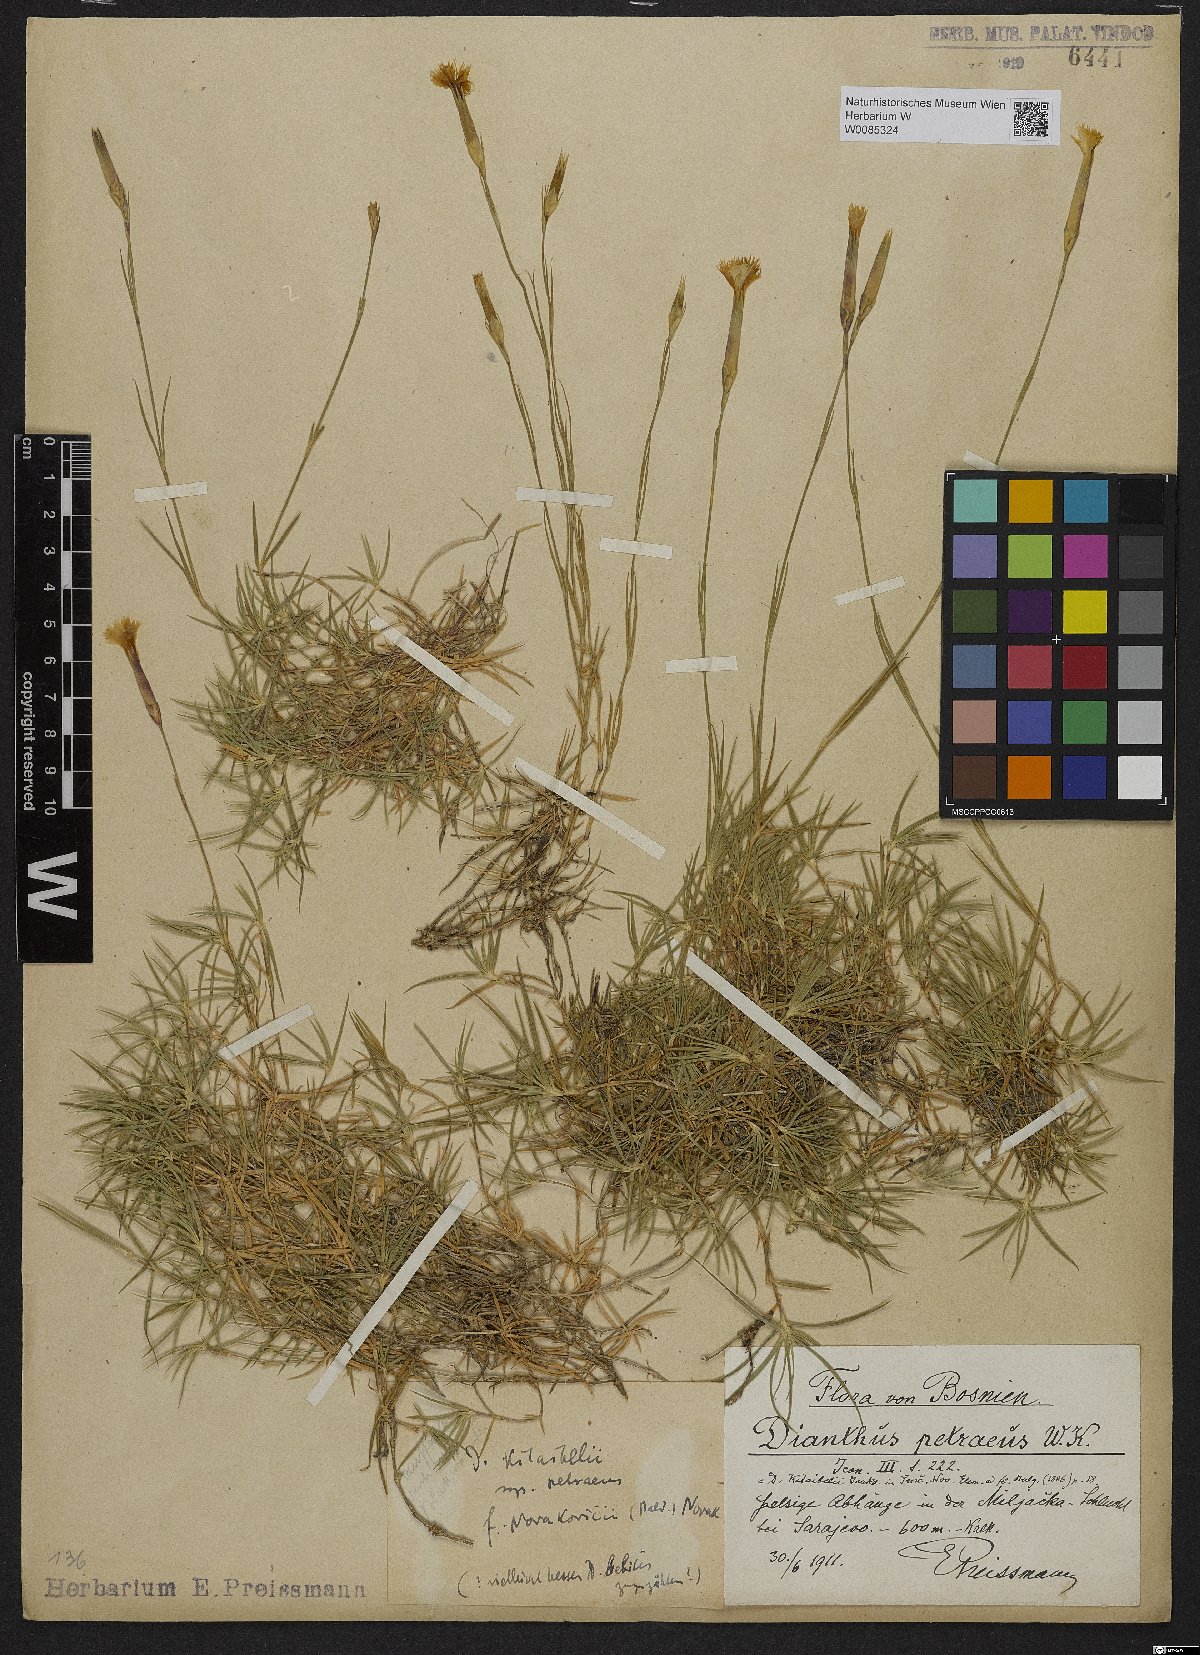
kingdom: Plantae
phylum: Tracheophyta
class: Magnoliopsida
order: Caryophyllales
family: Caryophyllaceae
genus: Dianthus
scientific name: Dianthus petraeus
